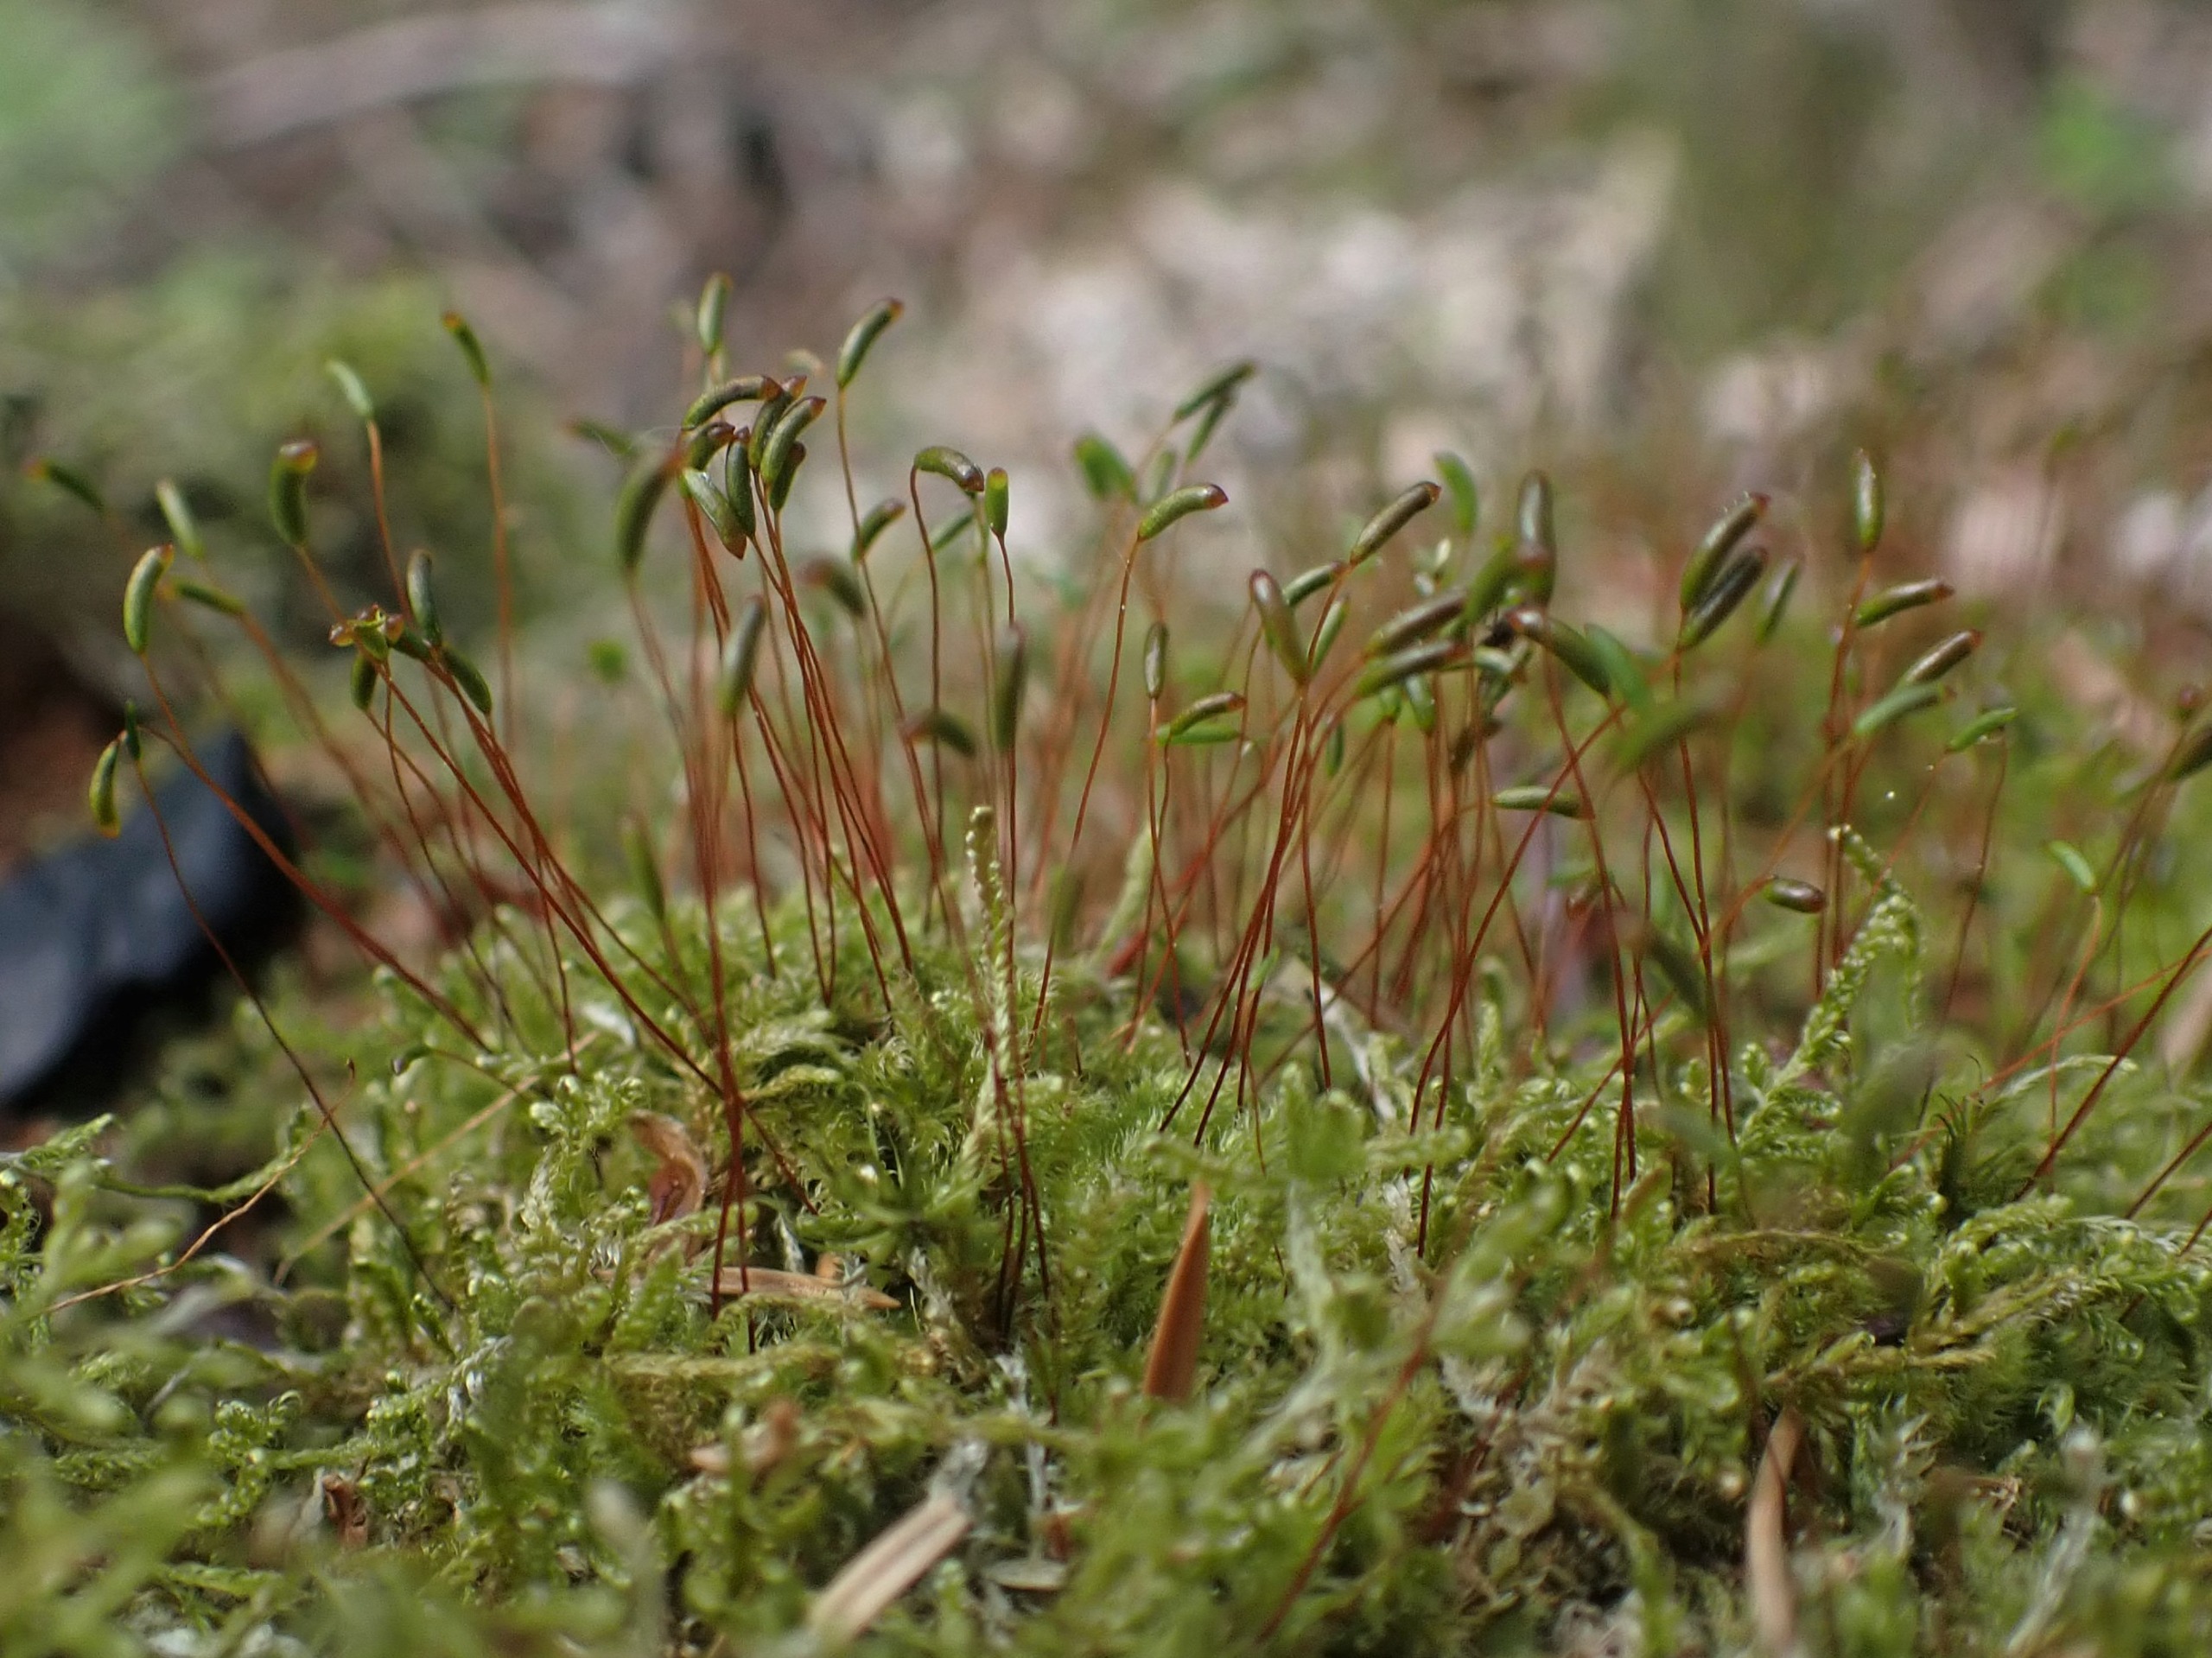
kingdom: Plantae
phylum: Bryophyta
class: Bryopsida
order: Hypnales
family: Plagiotheciaceae
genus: Herzogiella
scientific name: Herzogiella seligeri
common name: Stub-pølsekapsel
